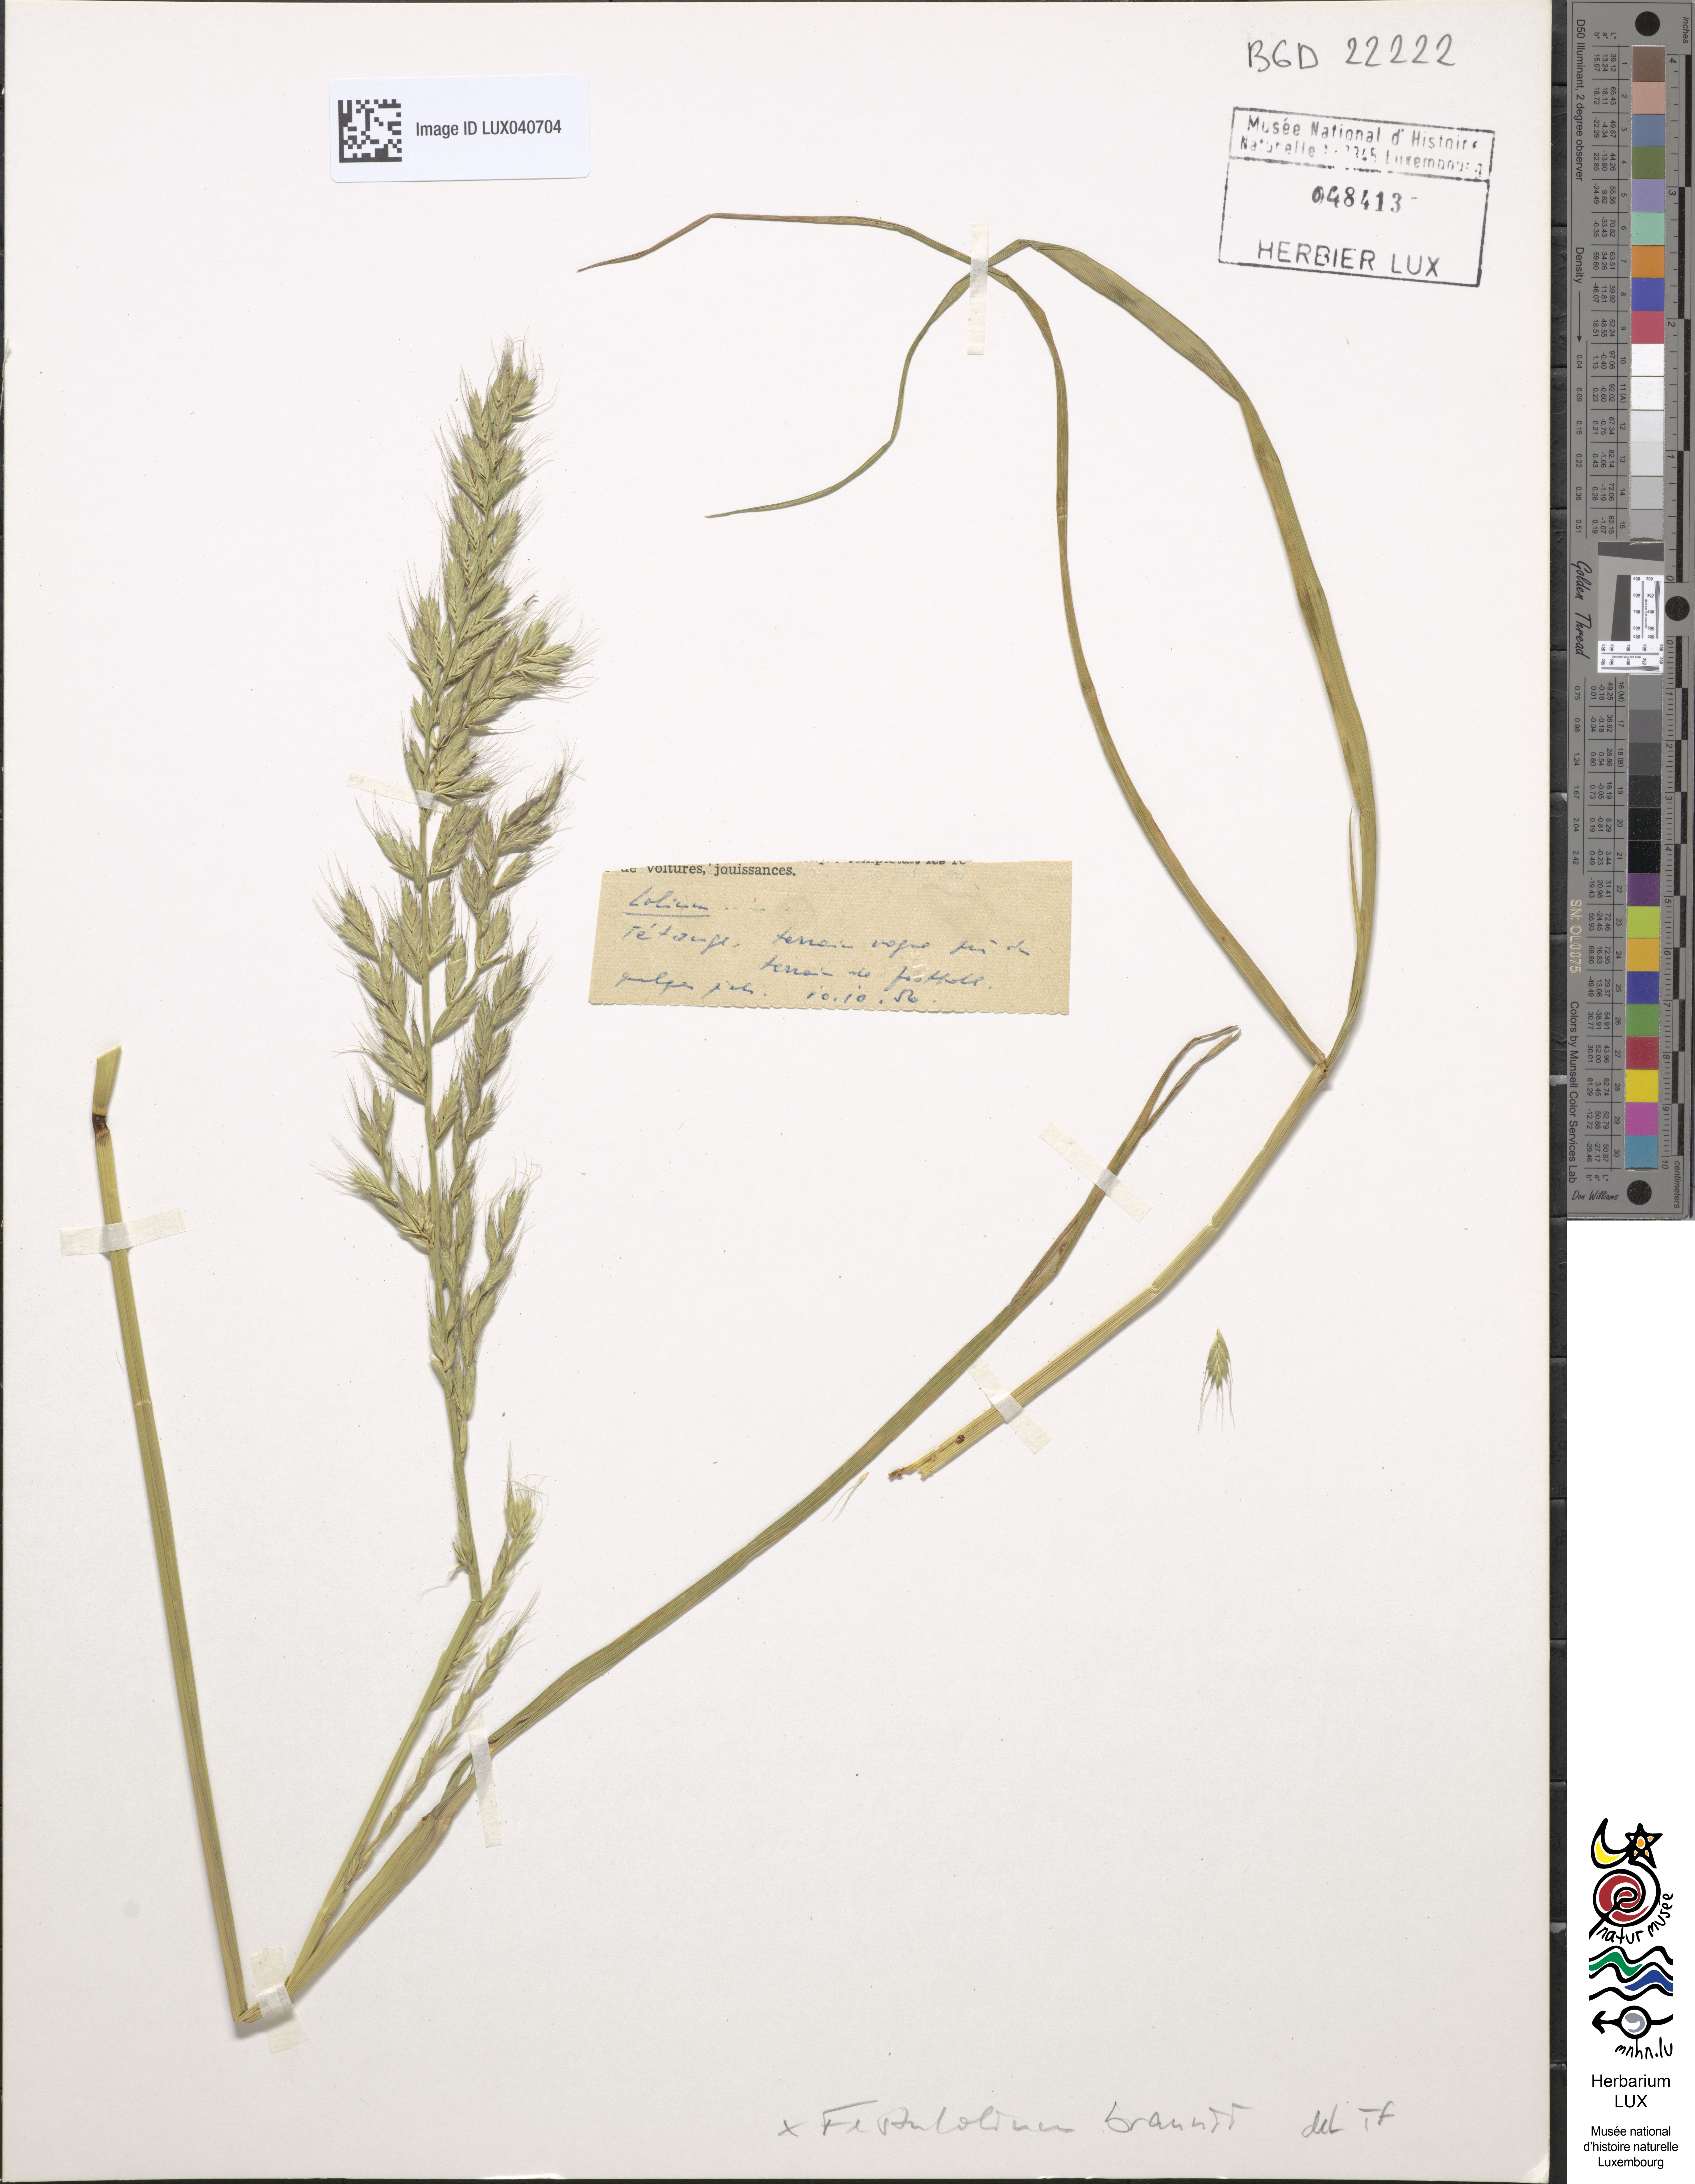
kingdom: Plantae
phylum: Tracheophyta
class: Liliopsida
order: Poales
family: Poaceae
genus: Lolium
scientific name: Lolium elongatum
